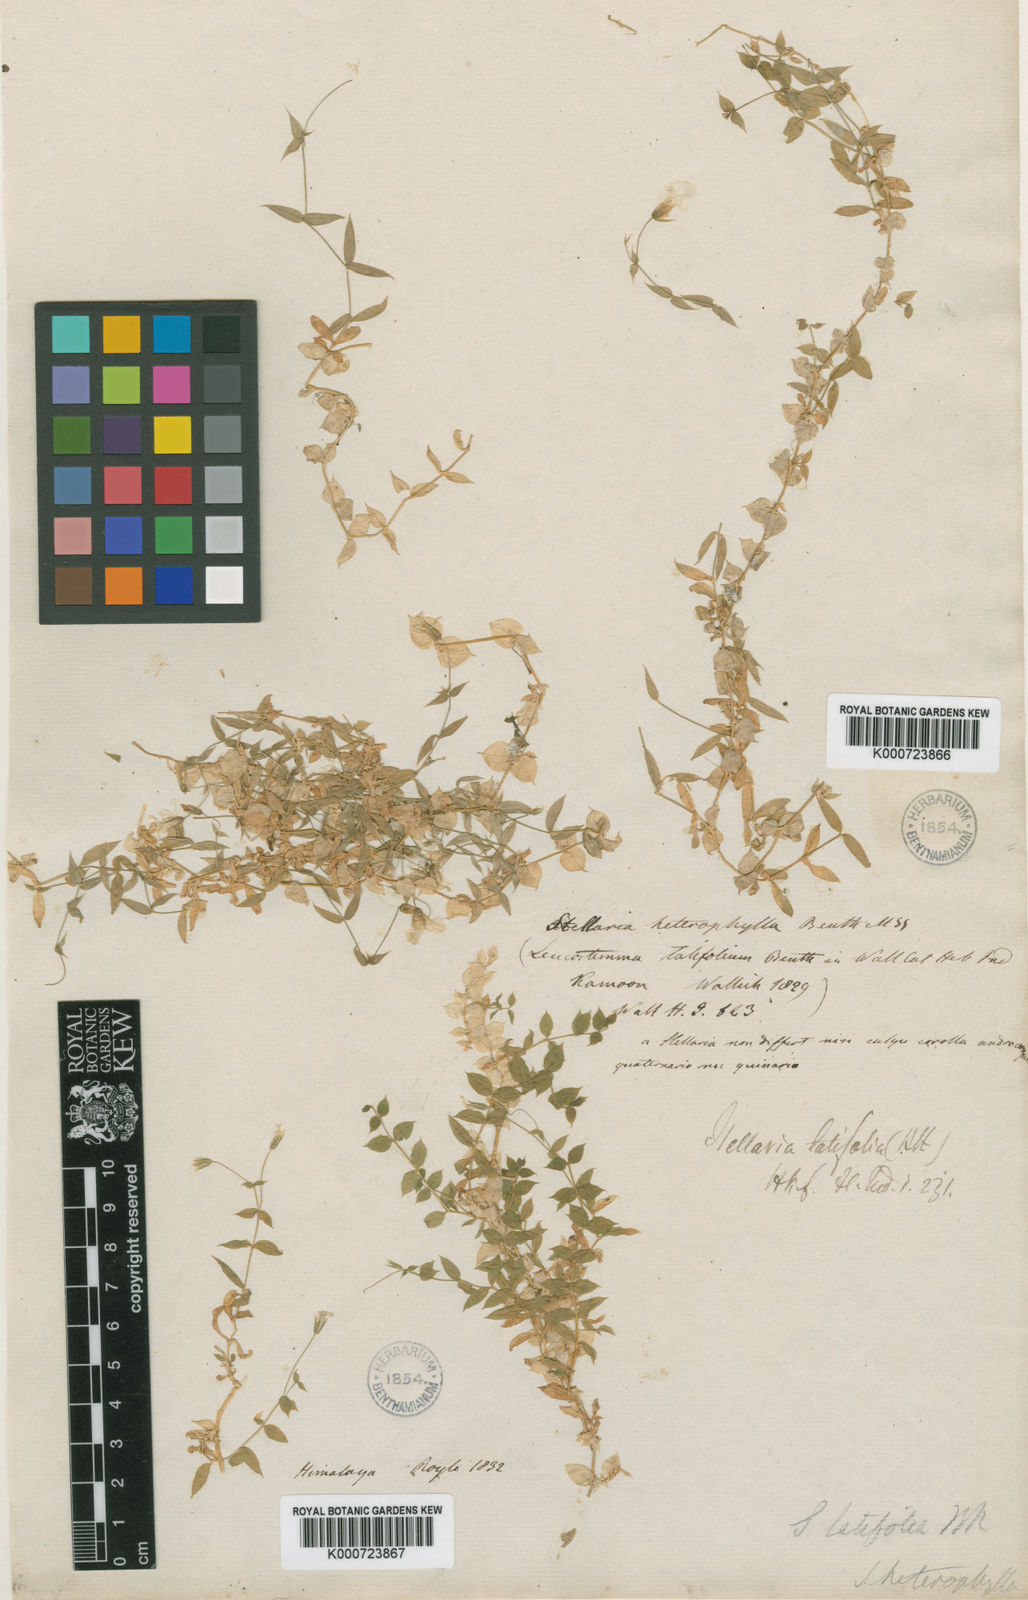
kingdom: Plantae
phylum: Tracheophyta
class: Magnoliopsida
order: Caryophyllales
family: Caryophyllaceae
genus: Stellaria
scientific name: Stellaria
